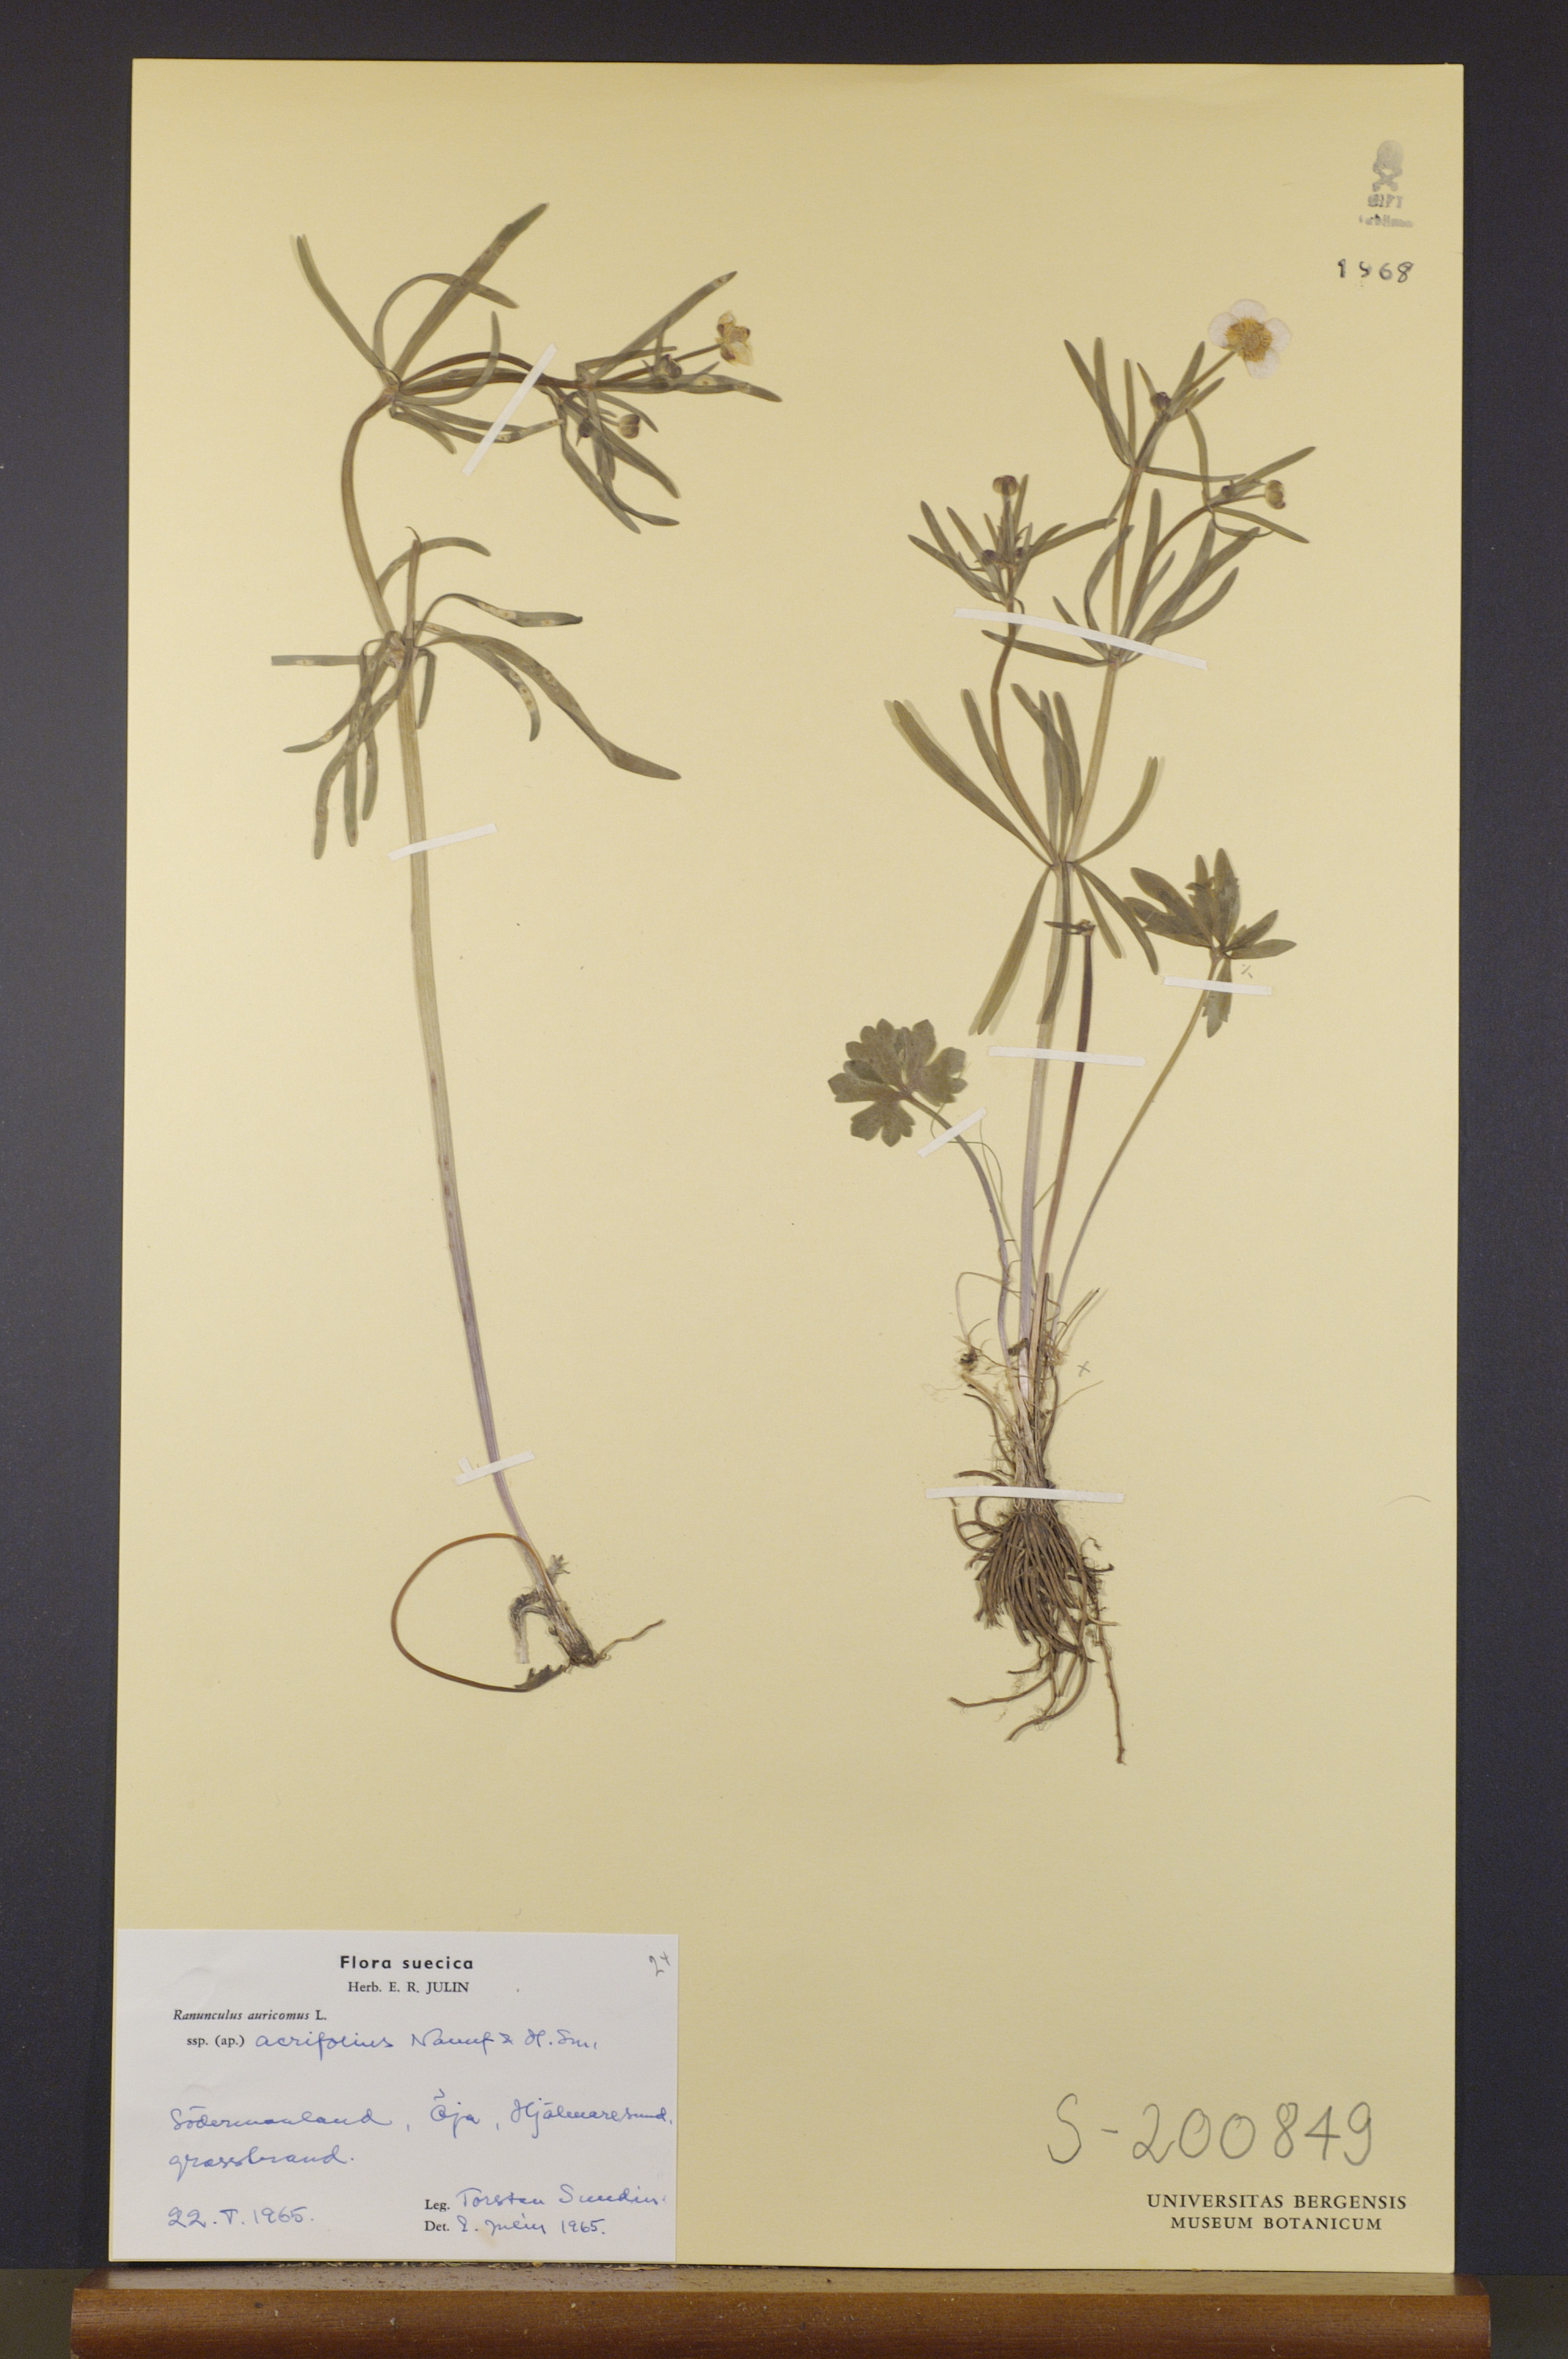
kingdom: Plantae
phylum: Tracheophyta
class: Magnoliopsida
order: Ranunculales
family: Ranunculaceae
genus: Ranunculus
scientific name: Ranunculus acrifolius
